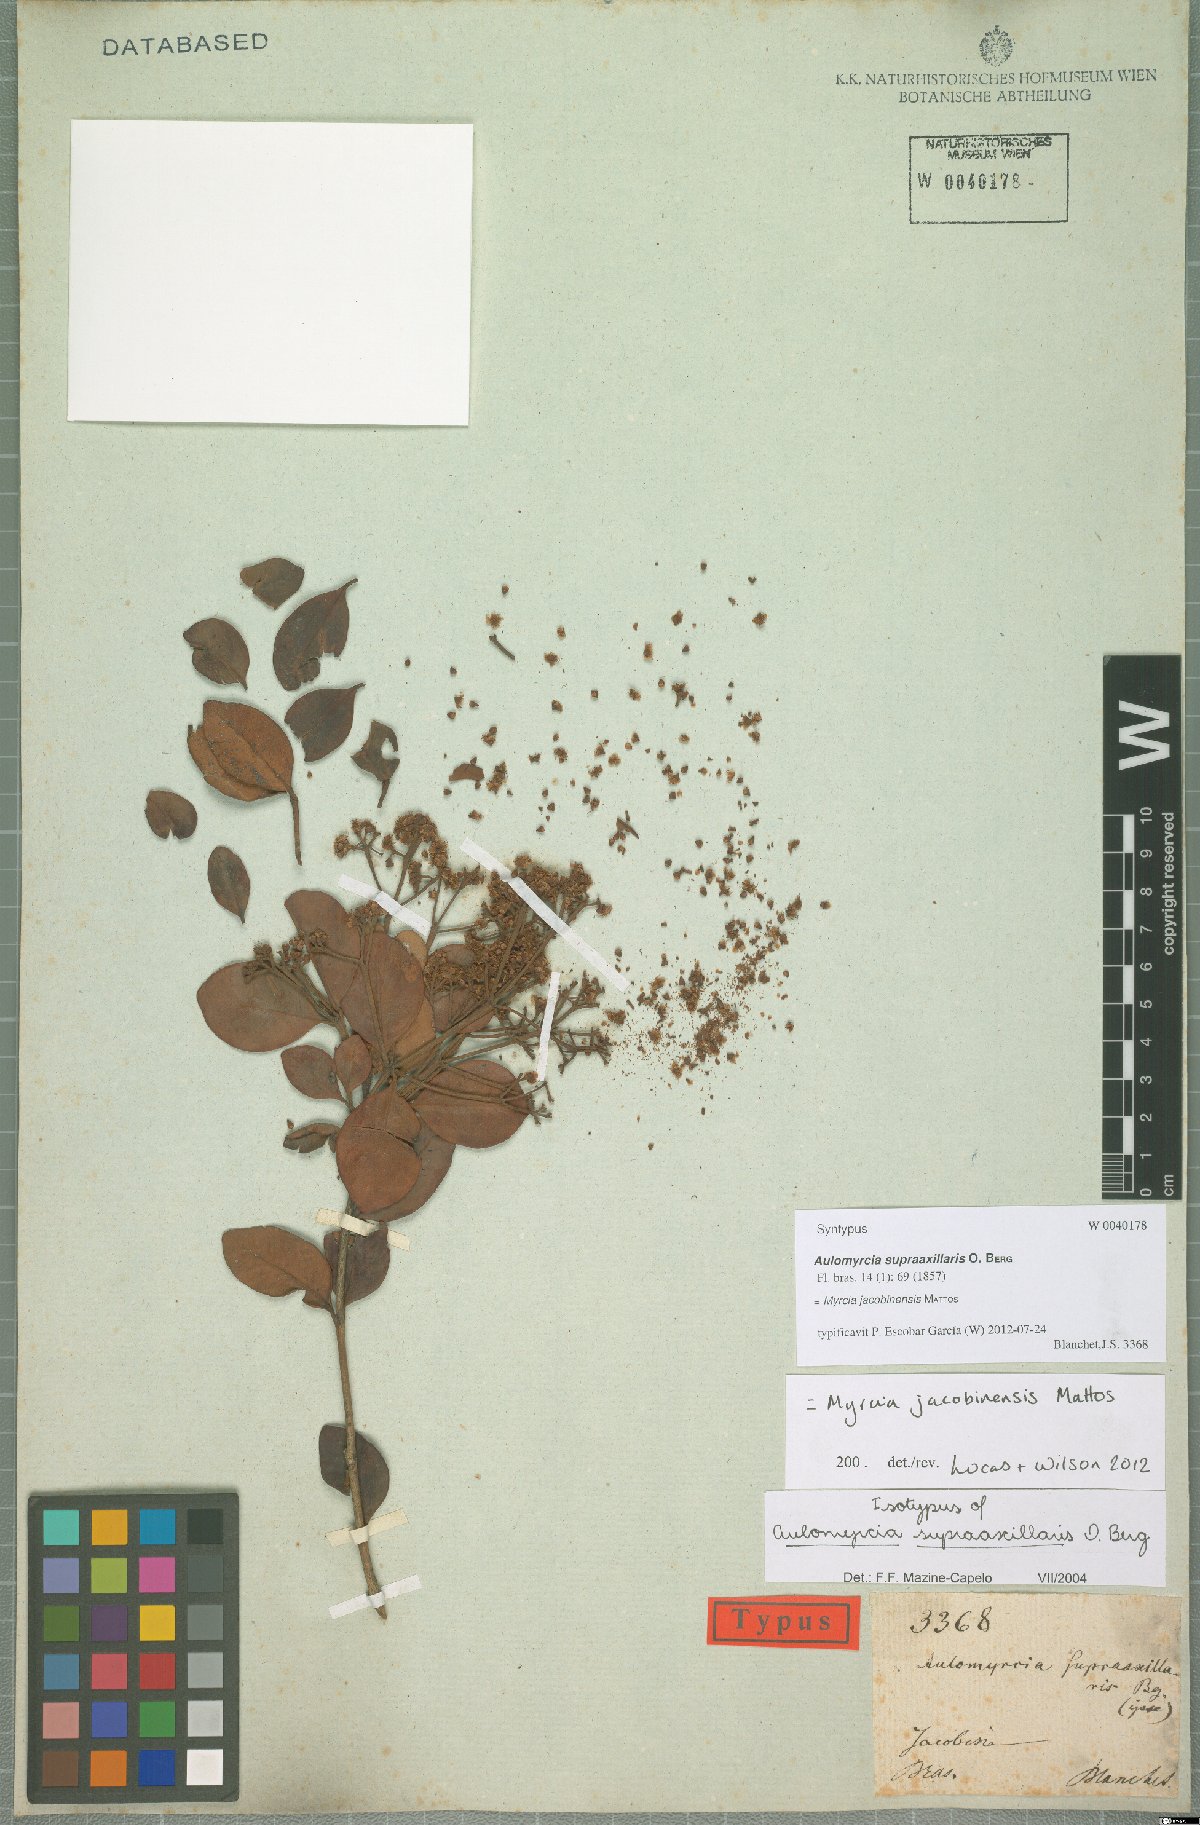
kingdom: Plantae
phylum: Tracheophyta
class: Magnoliopsida
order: Myrtales
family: Myrtaceae
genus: Myrcia
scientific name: Myrcia jacobinensis
